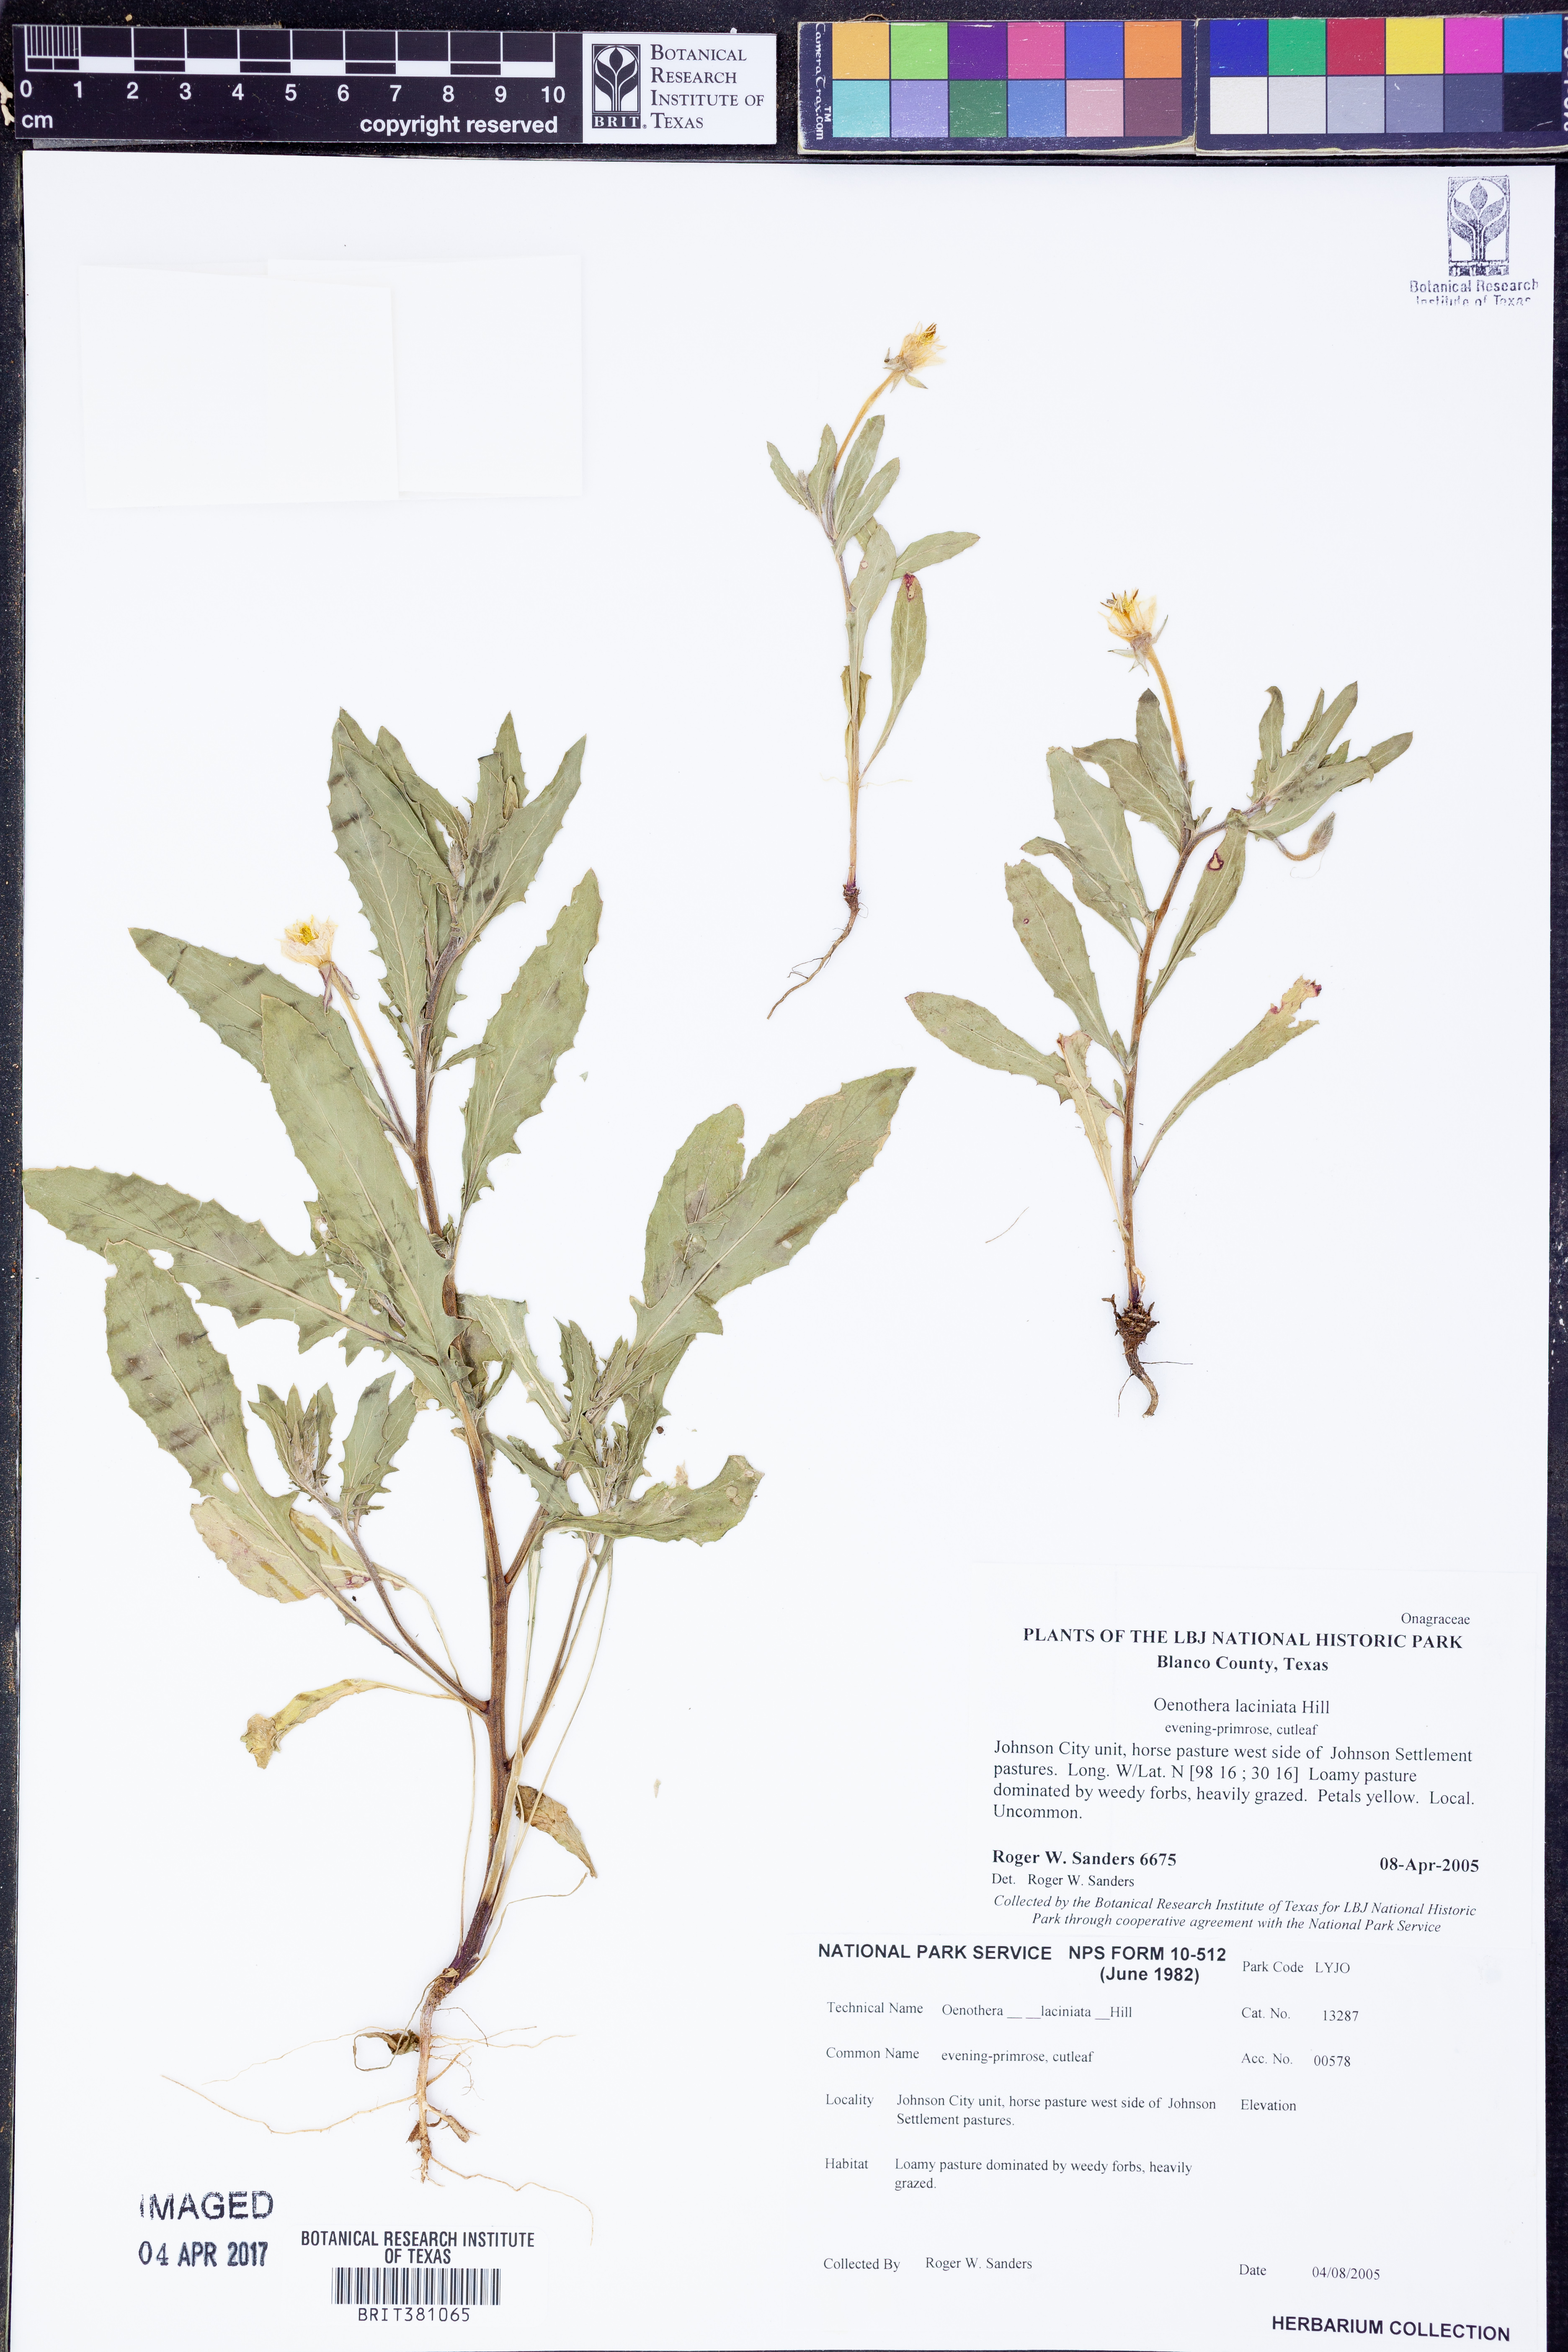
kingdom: Plantae
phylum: Tracheophyta
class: Magnoliopsida
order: Myrtales
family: Onagraceae
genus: Oenothera
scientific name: Oenothera laciniata
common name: Cut-leaved evening-primrose
